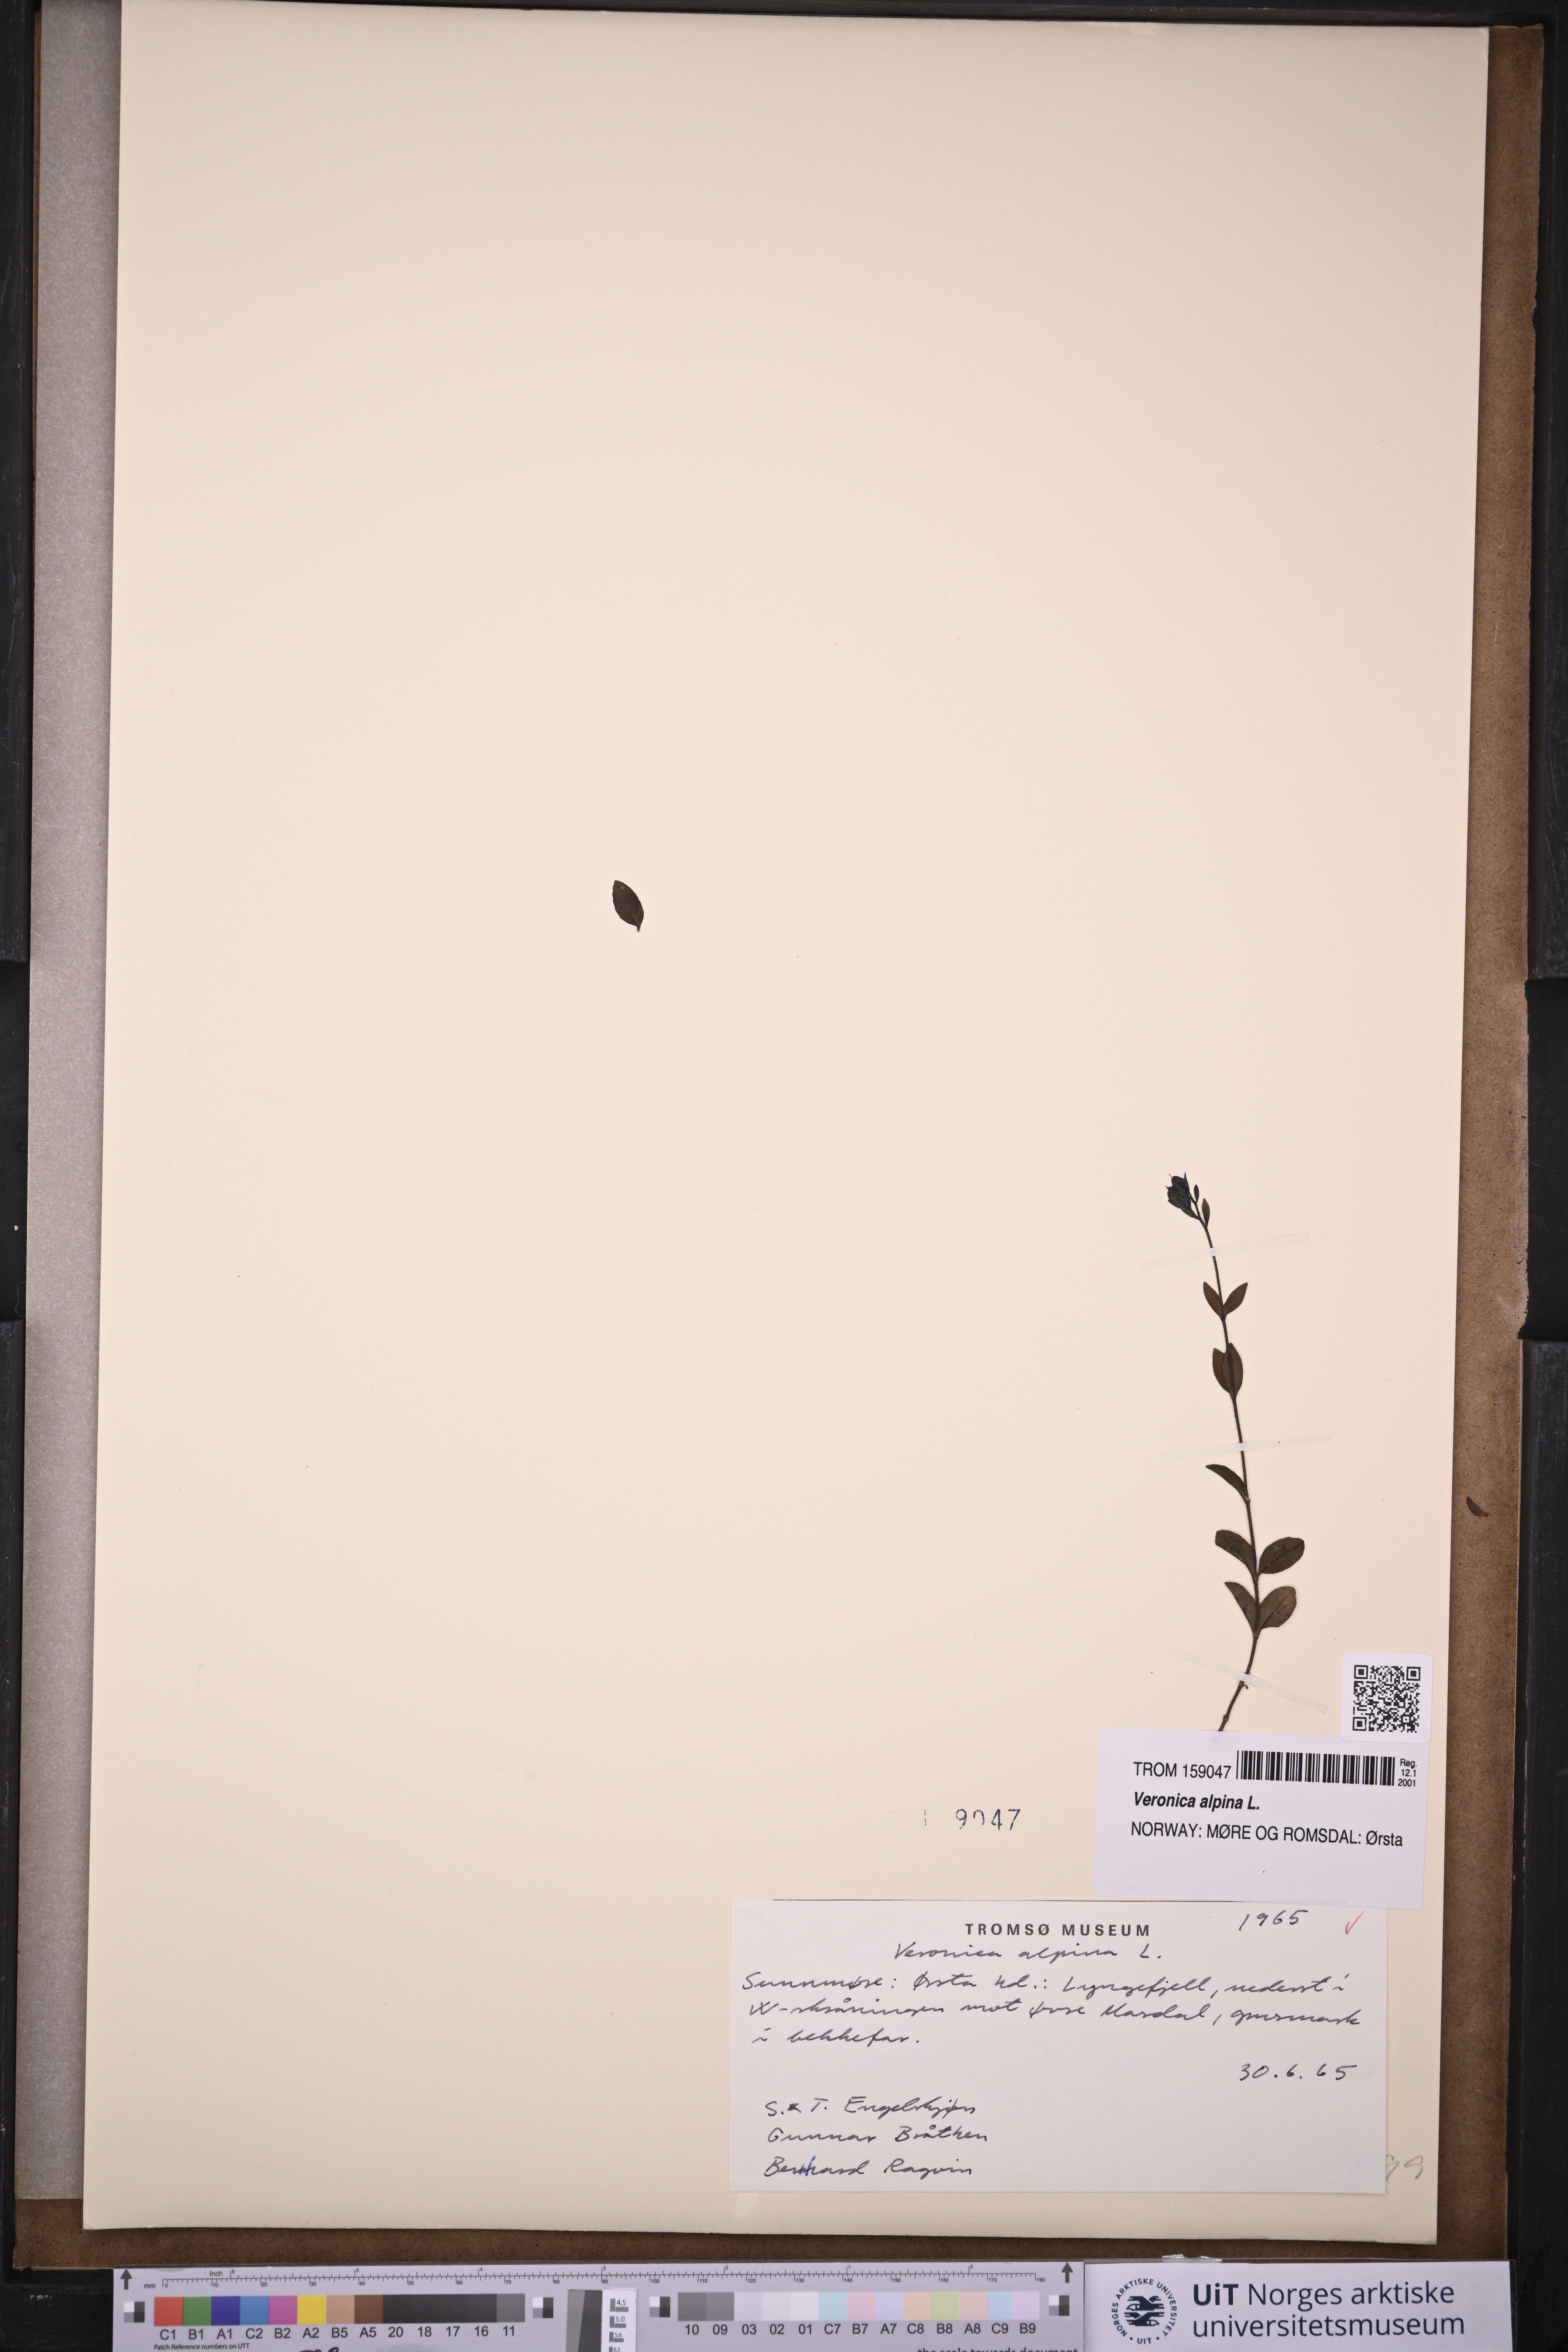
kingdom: Plantae
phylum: Tracheophyta
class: Magnoliopsida
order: Lamiales
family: Plantaginaceae
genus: Veronica
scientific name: Veronica alpina
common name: Alpine speedwell
